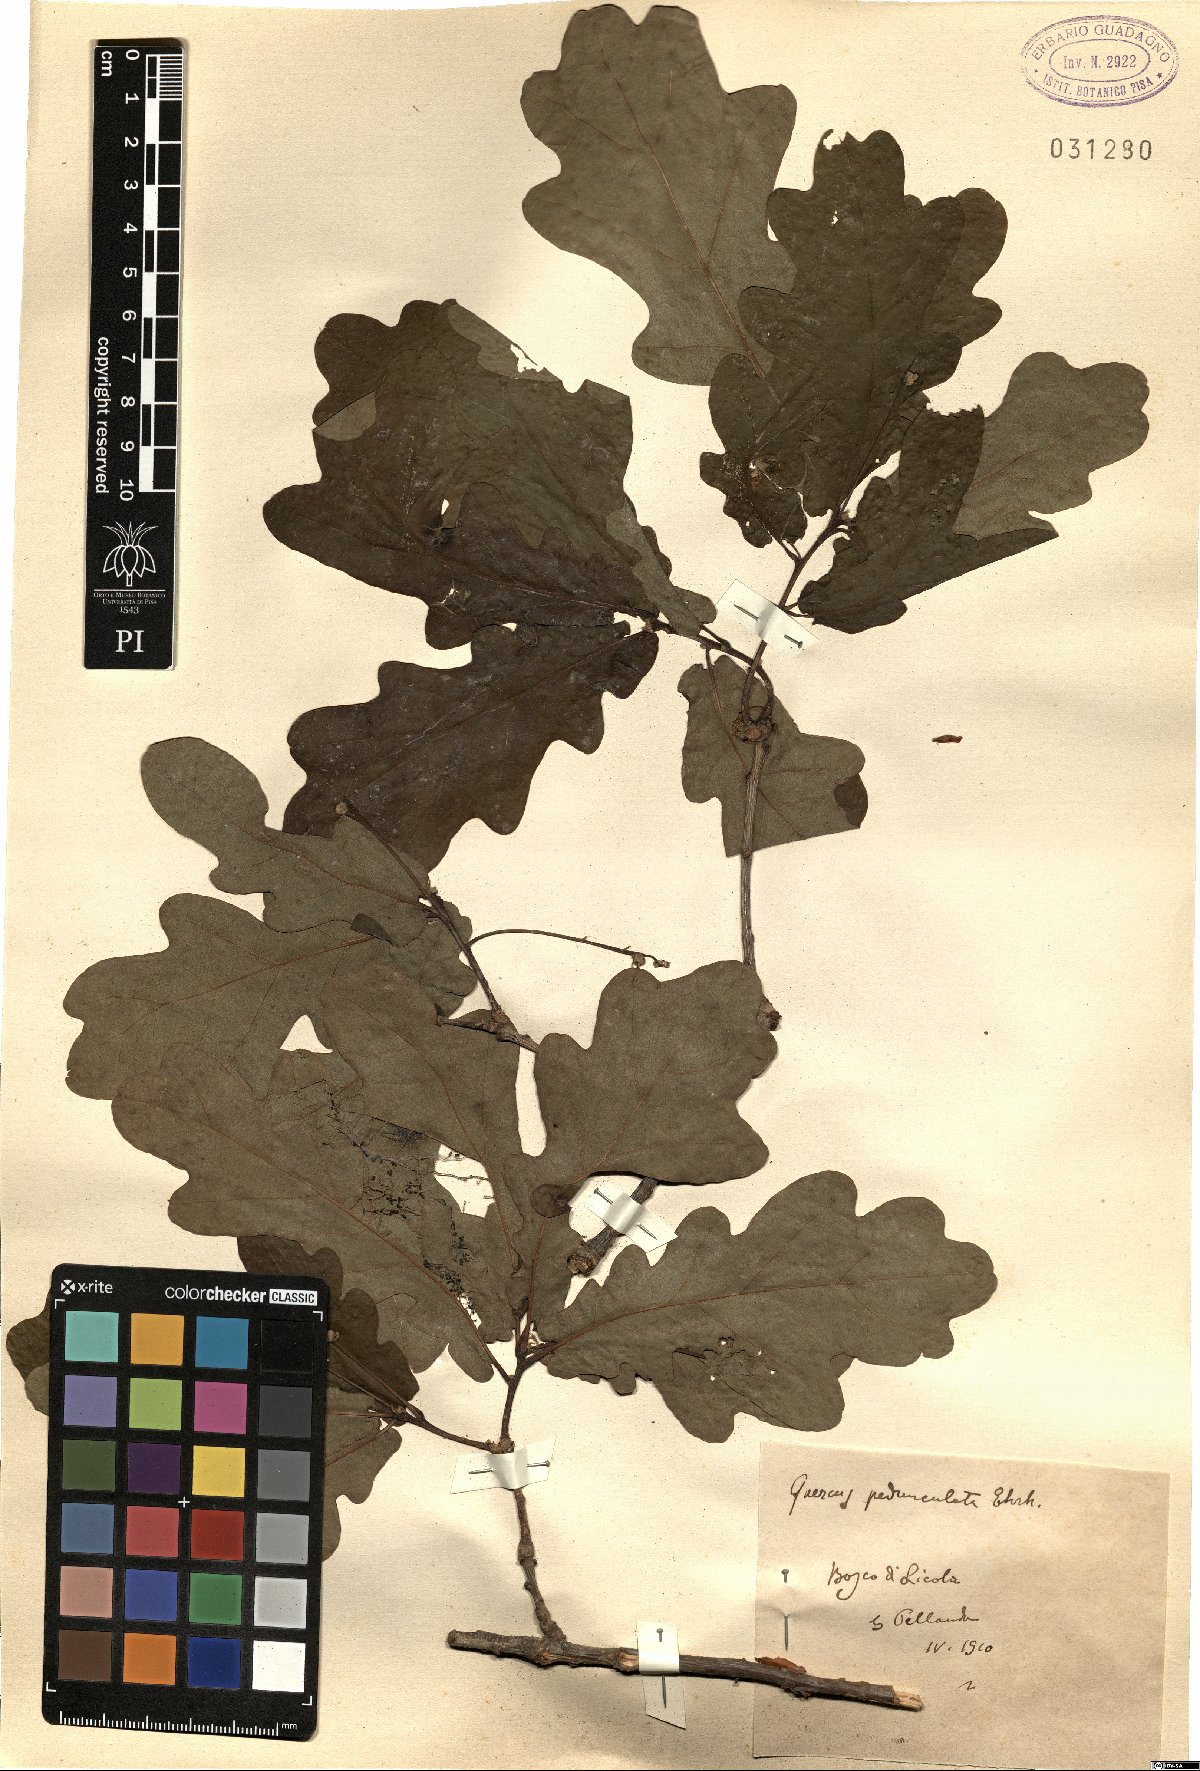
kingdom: Plantae
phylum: Tracheophyta
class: Magnoliopsida
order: Fagales
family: Fagaceae
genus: Quercus
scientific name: Quercus robur
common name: Pedunculate oak
